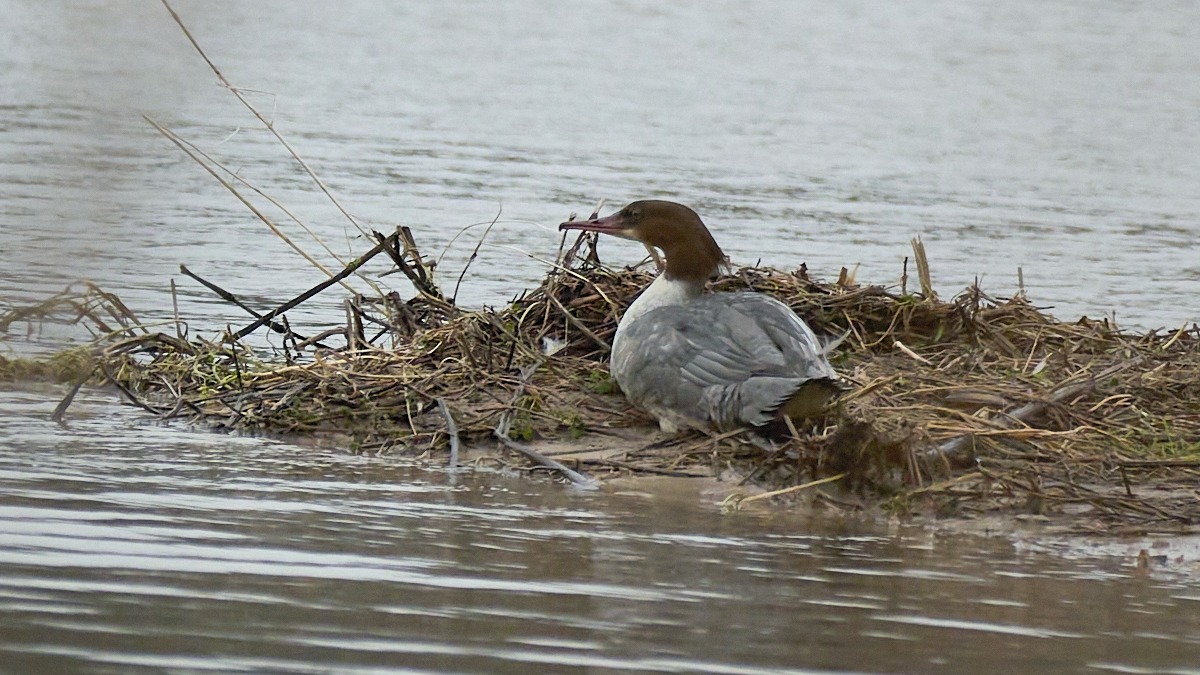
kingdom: Animalia
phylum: Chordata
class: Aves
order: Anseriformes
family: Anatidae
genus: Mergus
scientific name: Mergus merganser
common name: Stor skallesluger
